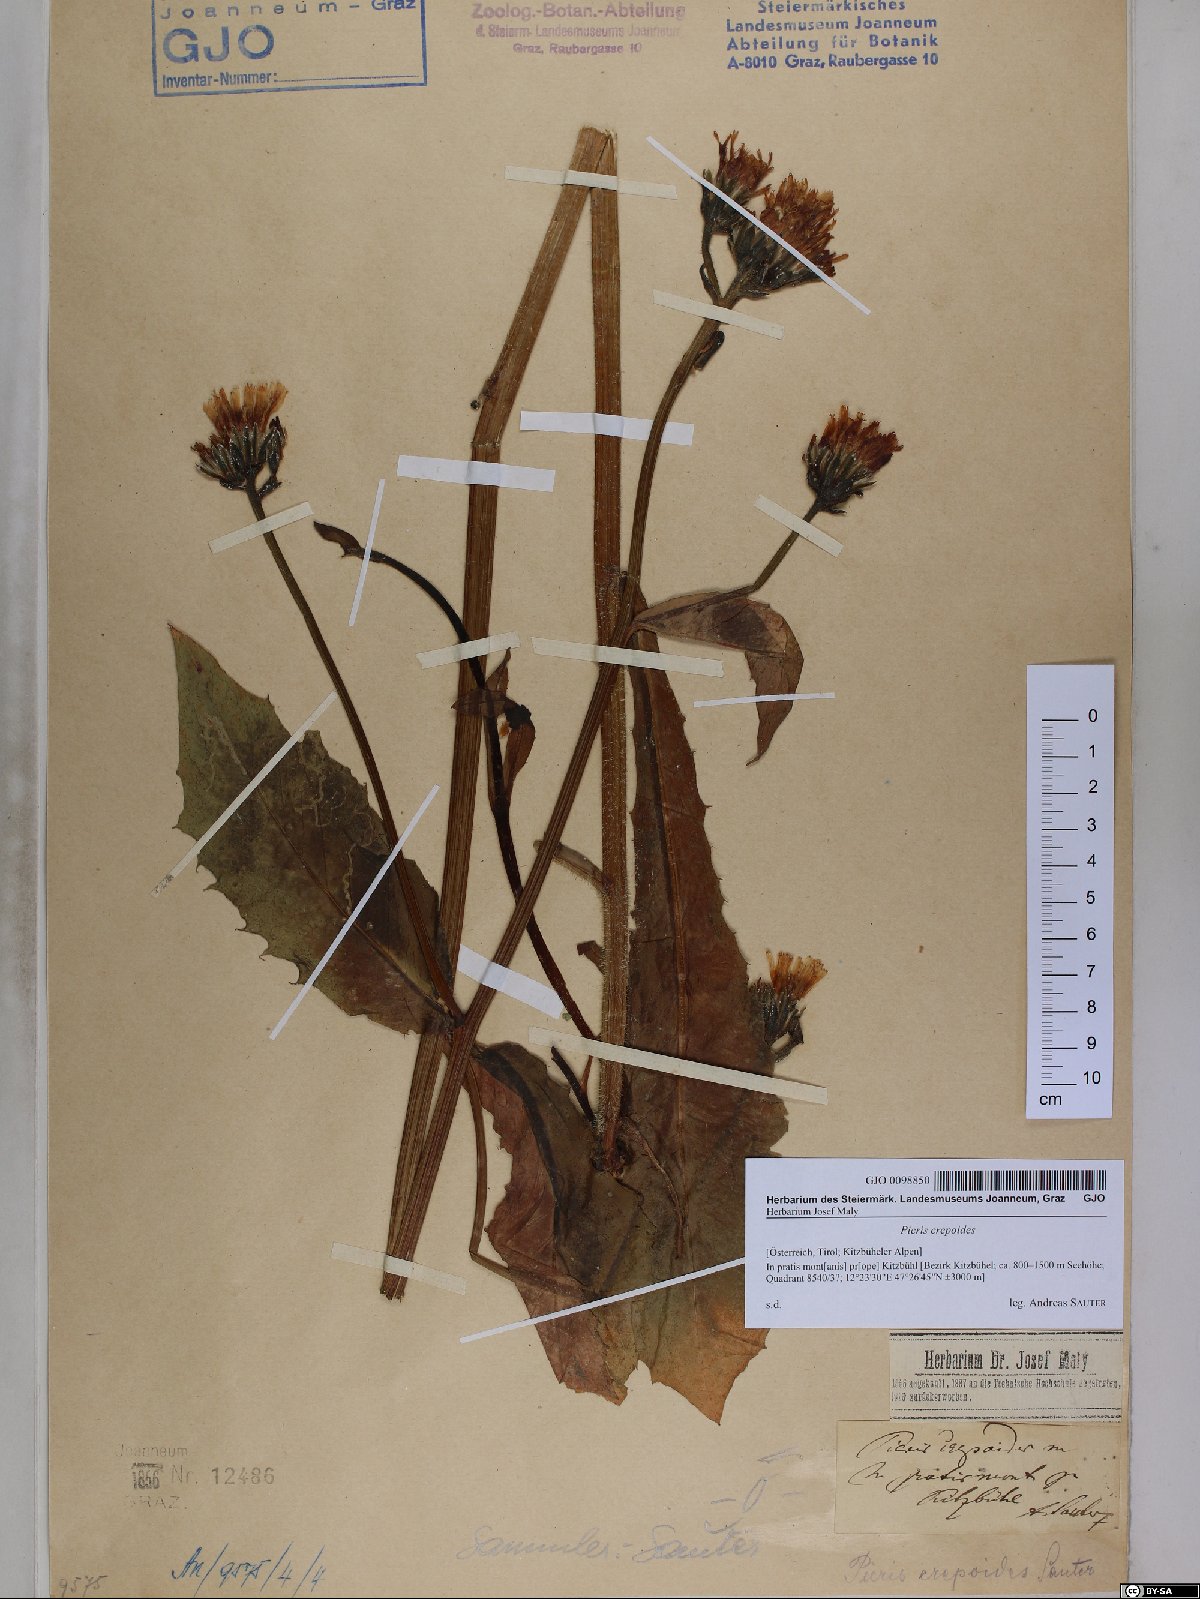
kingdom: Plantae
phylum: Tracheophyta
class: Magnoliopsida
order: Asterales
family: Asteraceae
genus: Picris
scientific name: Picris hieracioides
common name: Hawkweed oxtongue
